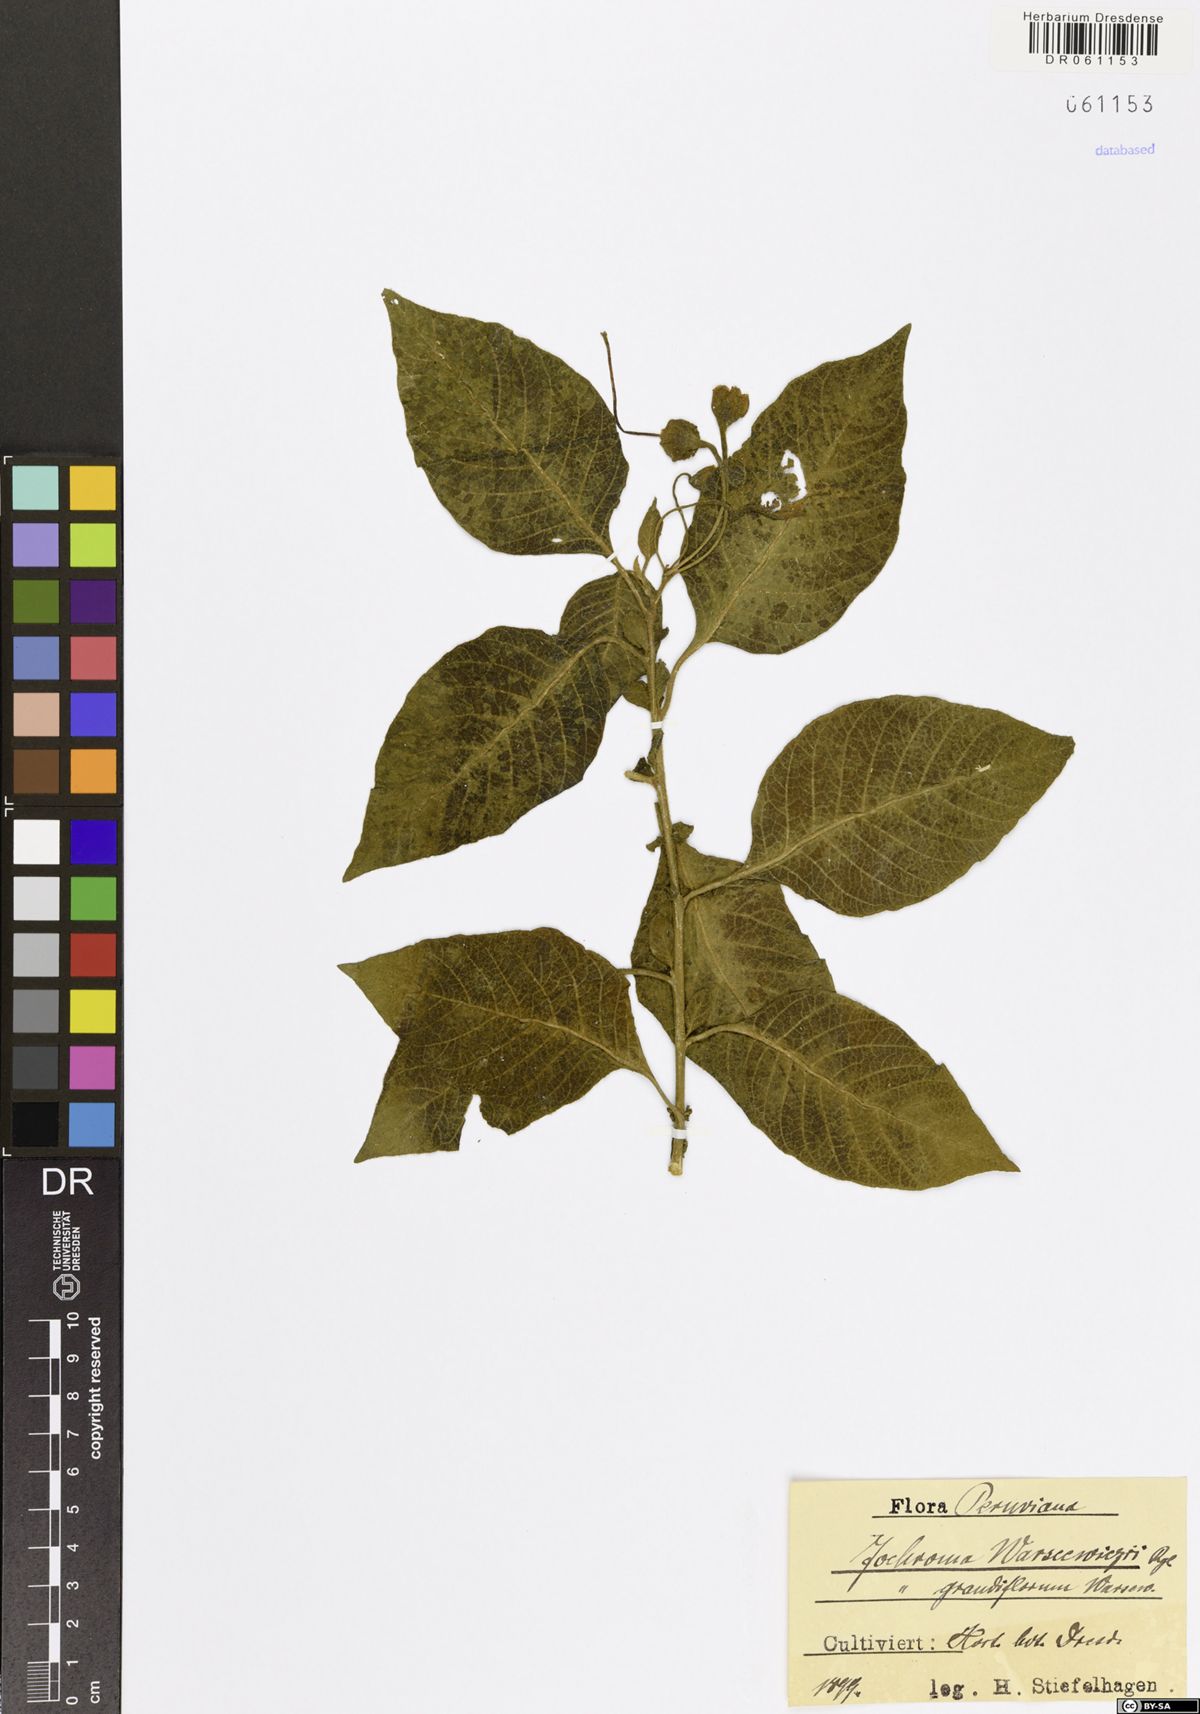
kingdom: Plantae
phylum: Tracheophyta
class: Magnoliopsida
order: Solanales
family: Solanaceae
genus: Iochroma
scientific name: Iochroma warscewiczii
